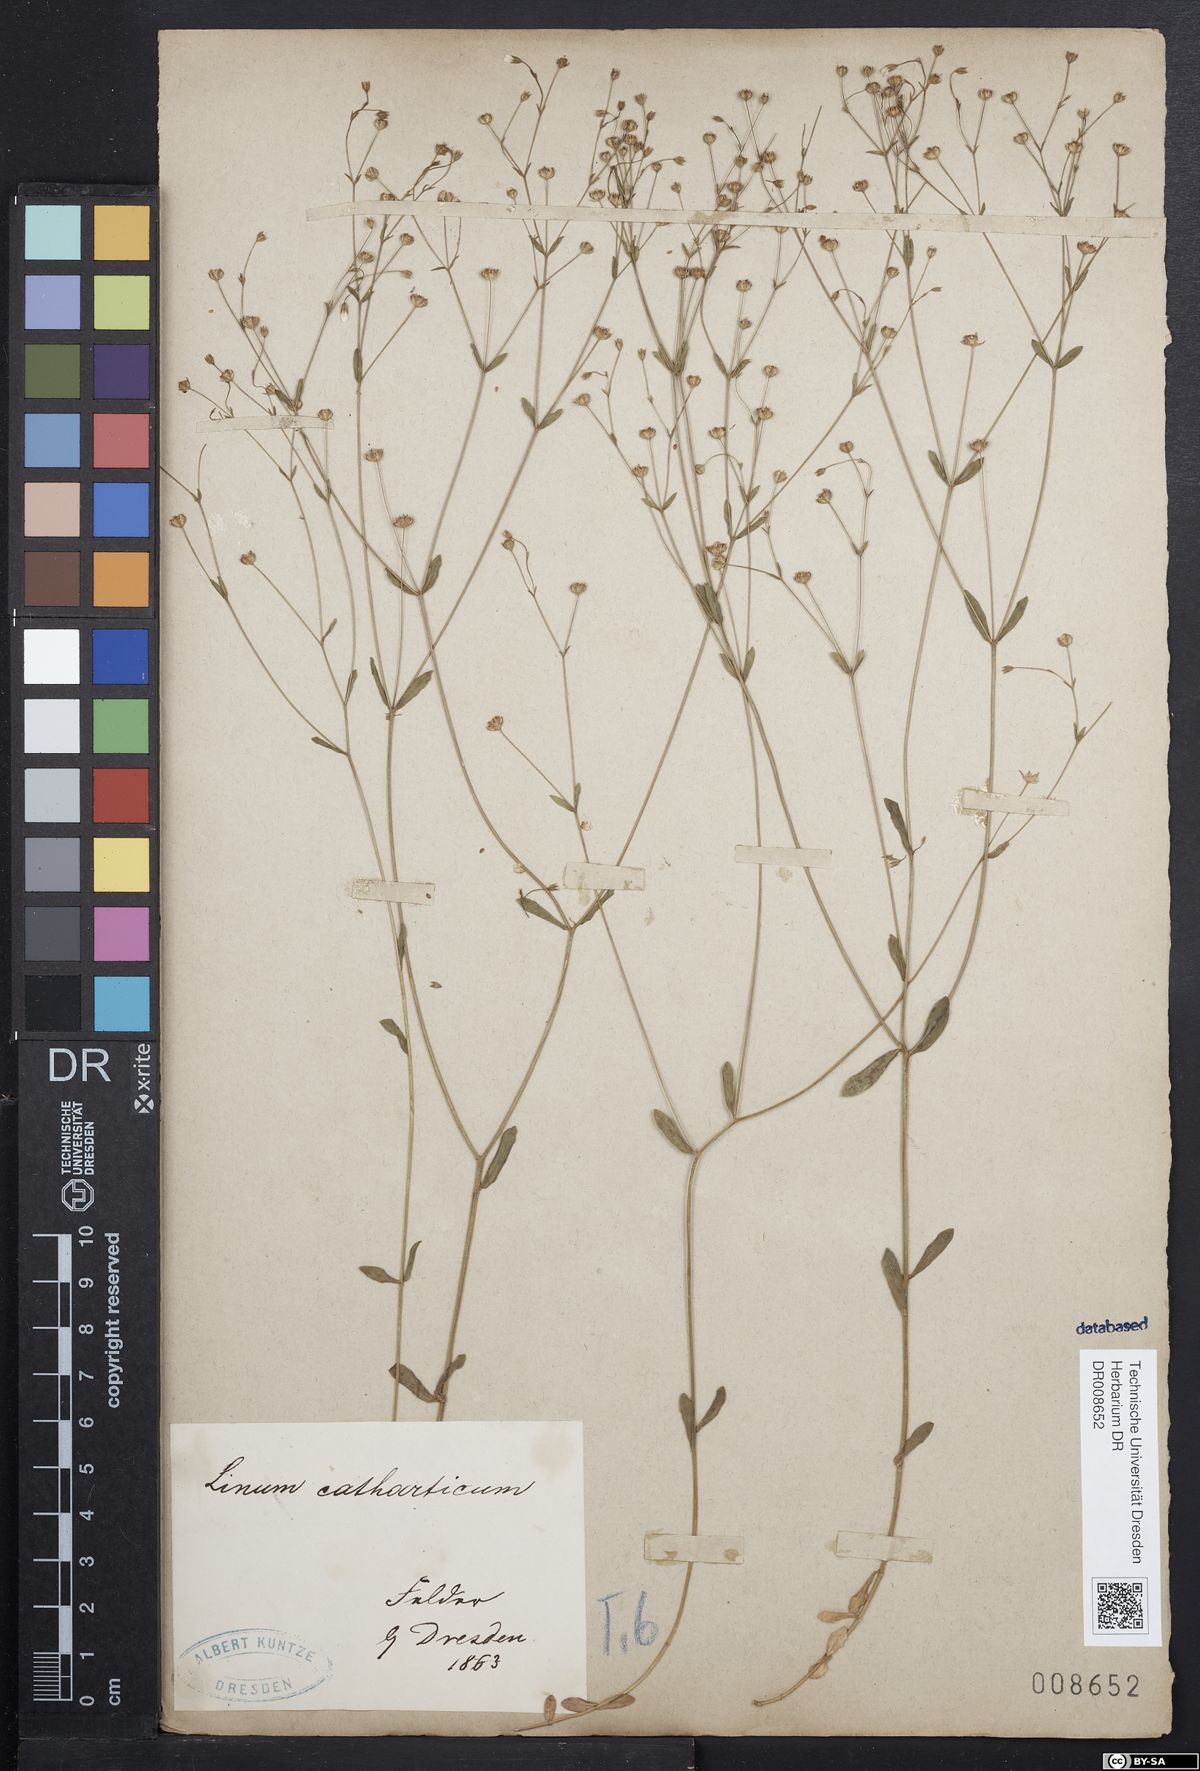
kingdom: Plantae
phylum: Tracheophyta
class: Magnoliopsida
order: Malpighiales
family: Linaceae
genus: Linum
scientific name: Linum catharticum
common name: Fairy flax
